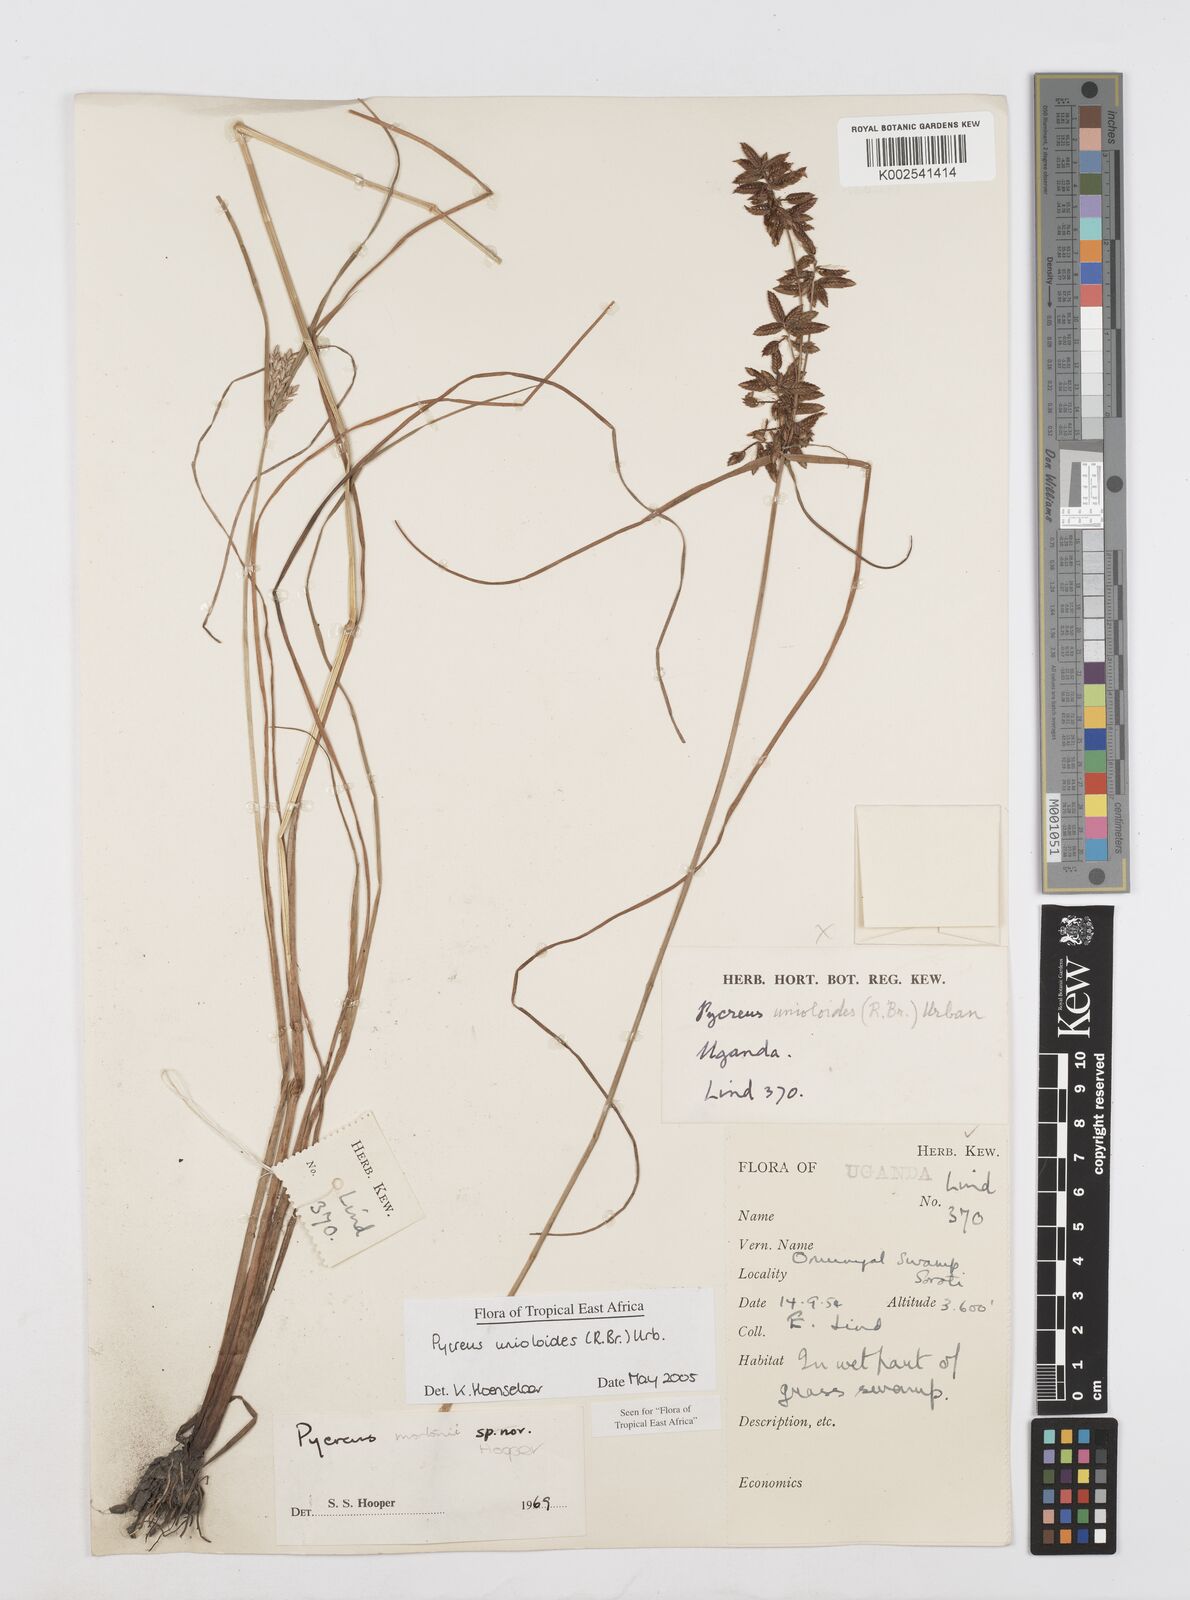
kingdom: Plantae
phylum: Tracheophyta
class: Liliopsida
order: Poales
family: Cyperaceae
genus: Cyperus
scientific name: Cyperus unioloides
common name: Uniola flatsedge
